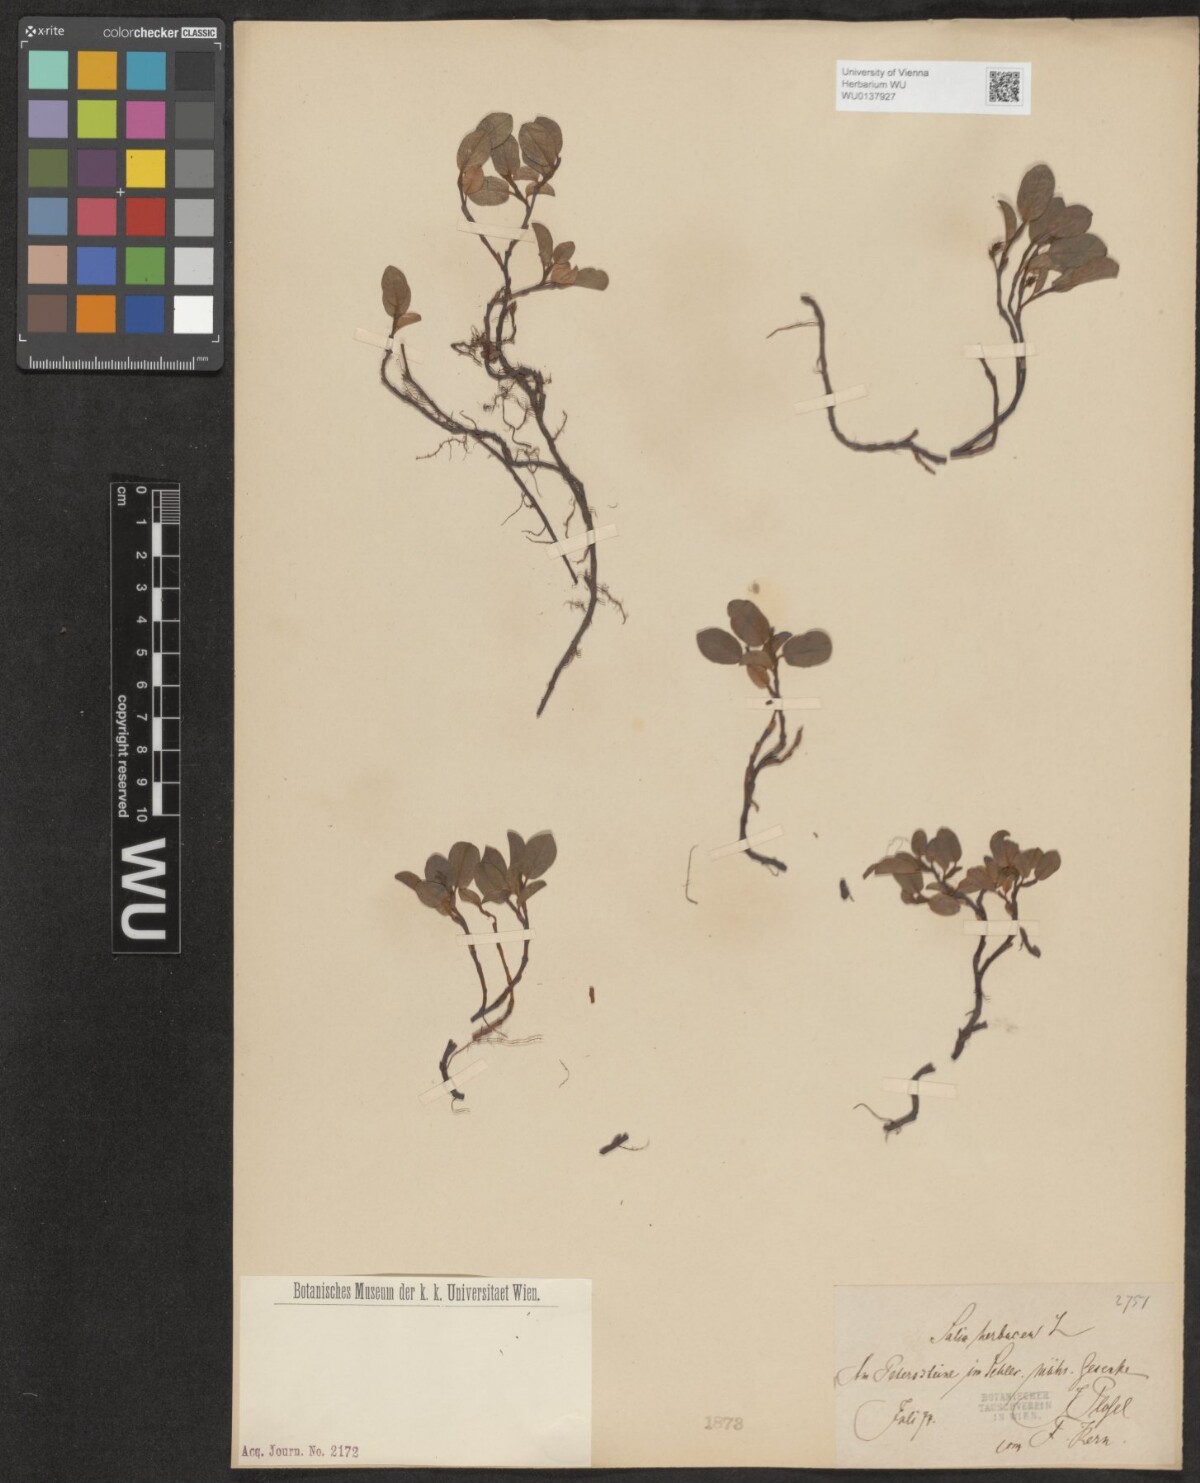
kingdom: Plantae
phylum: Tracheophyta
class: Magnoliopsida
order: Malpighiales
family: Salicaceae
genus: Salix
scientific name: Salix herbacea
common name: Dwarf willow
